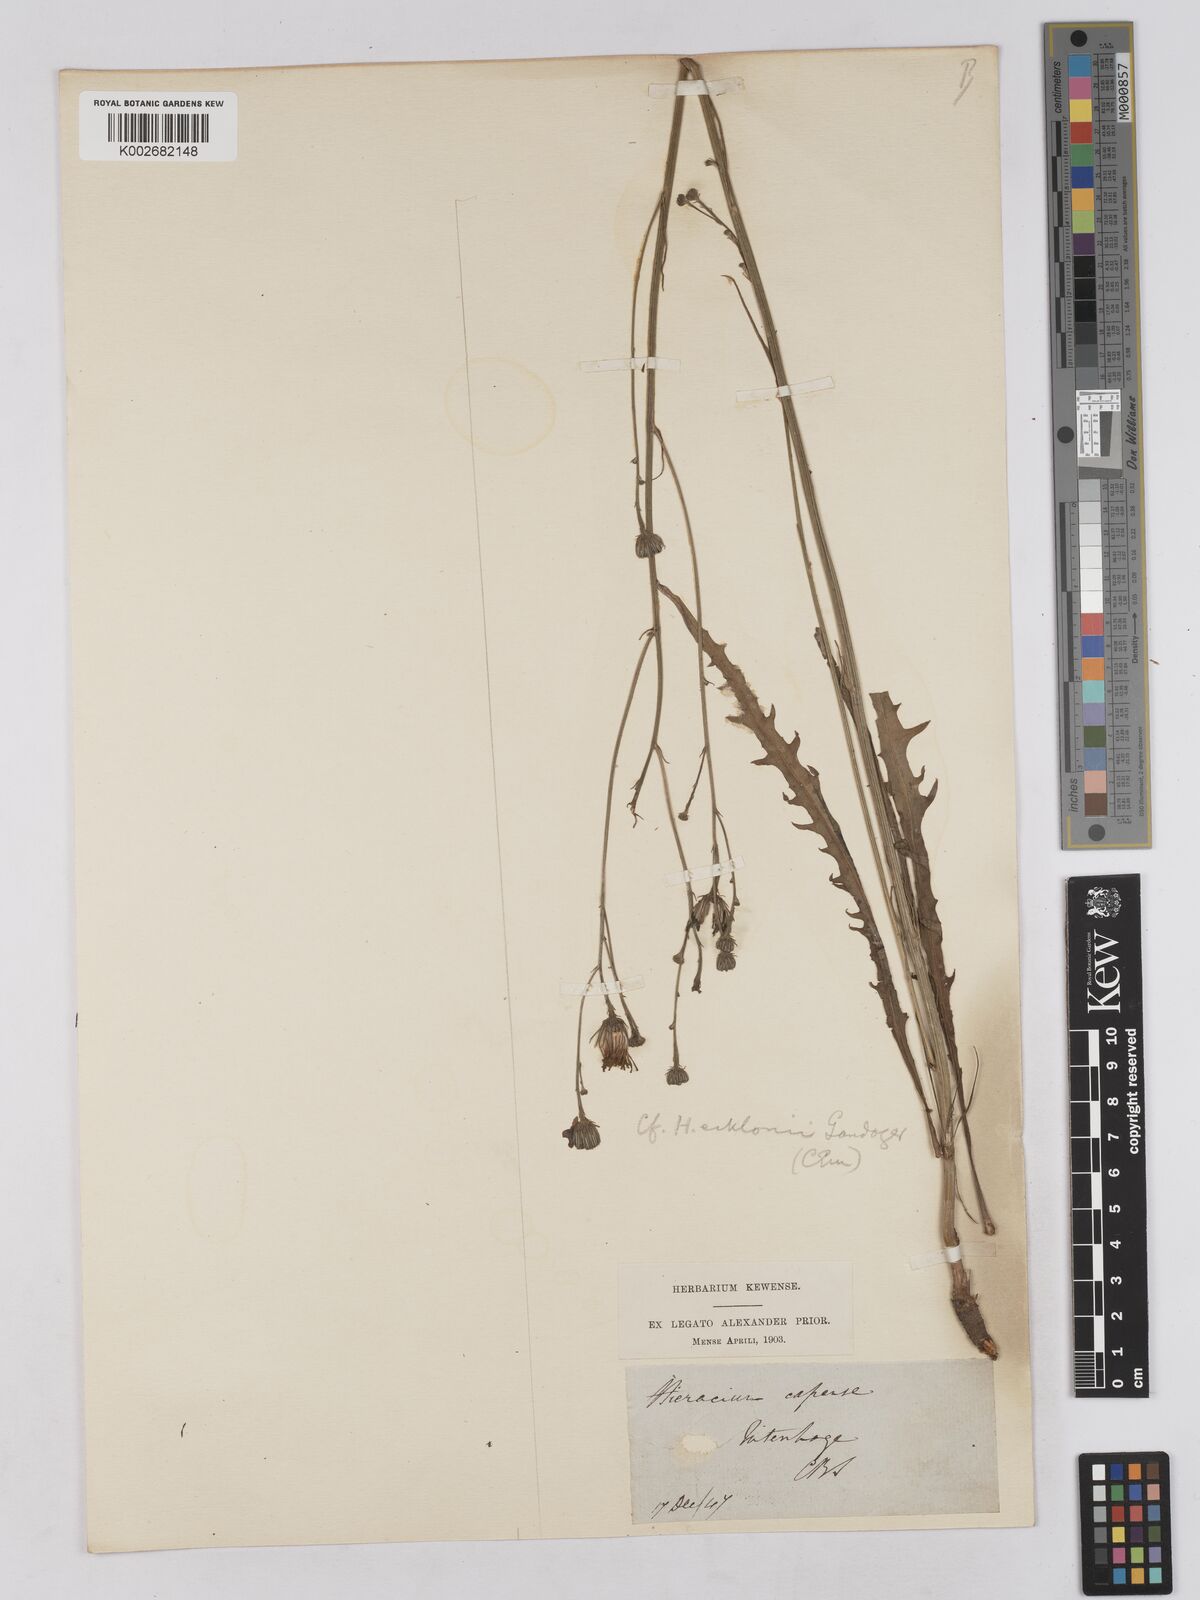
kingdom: Plantae
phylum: Tracheophyta
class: Magnoliopsida
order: Asterales
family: Asteraceae
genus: Tolpis
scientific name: Tolpis
